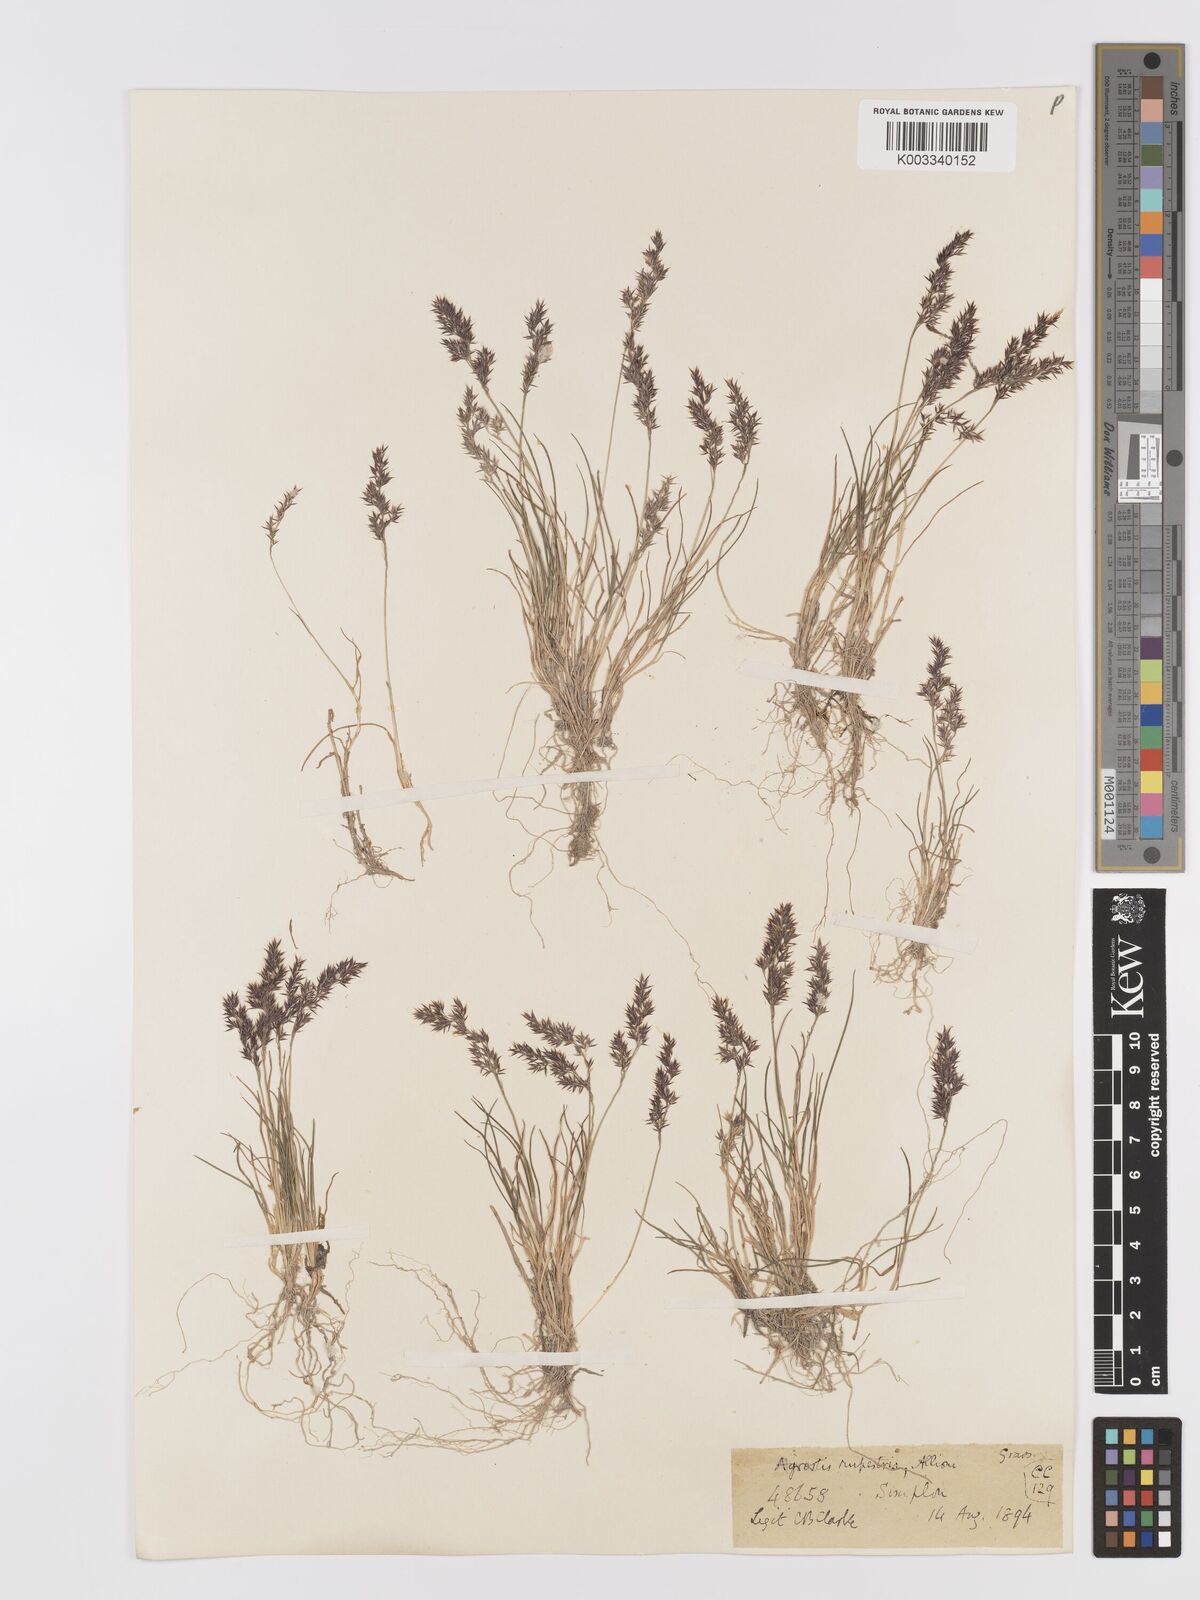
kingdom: Plantae
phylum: Tracheophyta
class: Liliopsida
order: Poales
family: Poaceae
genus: Agrostis
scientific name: Agrostis rupestris
